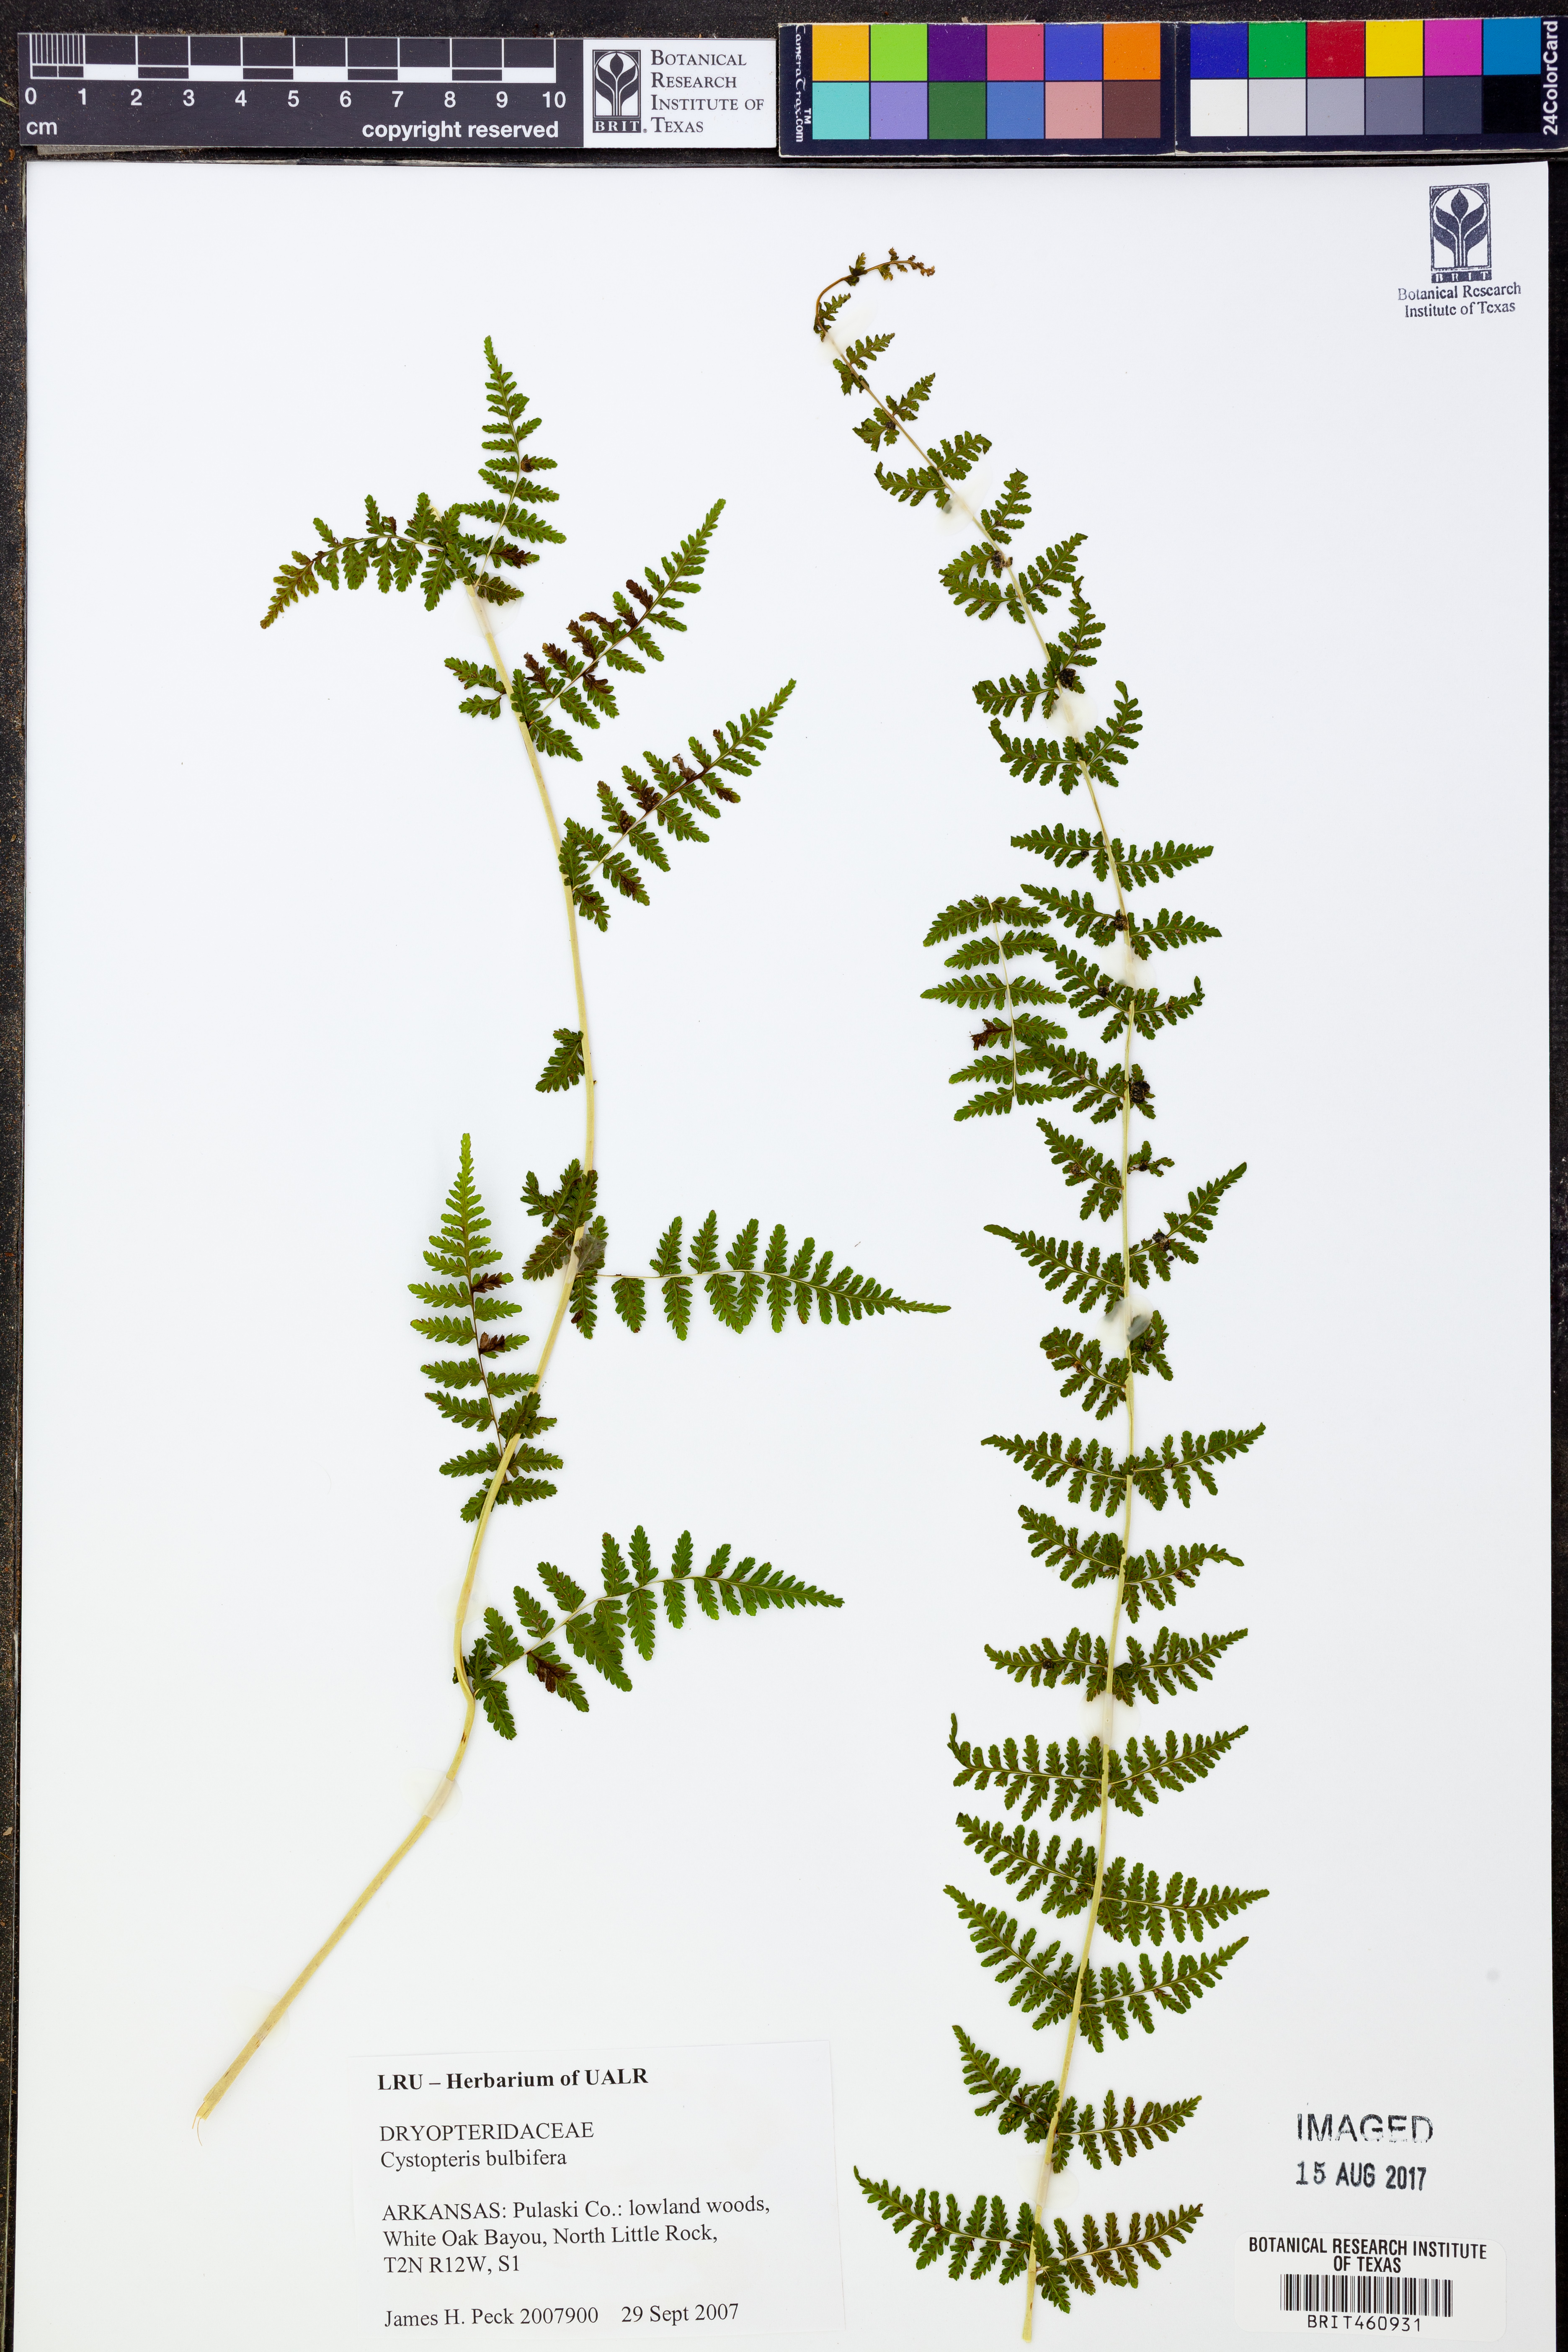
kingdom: Plantae
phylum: Tracheophyta
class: Polypodiopsida
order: Polypodiales
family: Cystopteridaceae
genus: Cystopteris
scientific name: Cystopteris bulbifera
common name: Bulblet bladder fern
